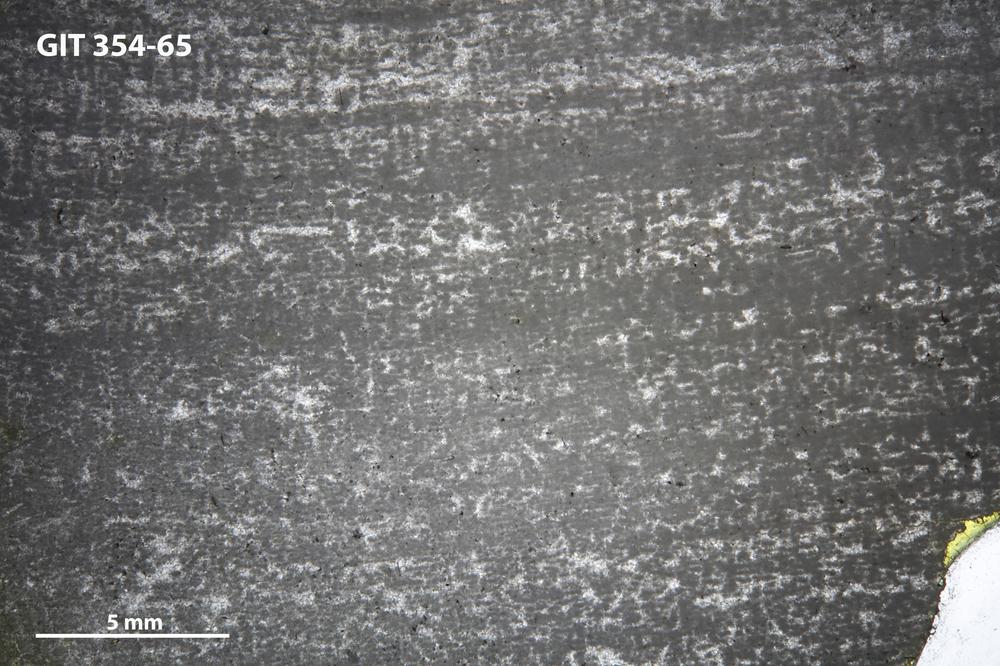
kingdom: Animalia
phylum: Porifera
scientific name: Porifera
